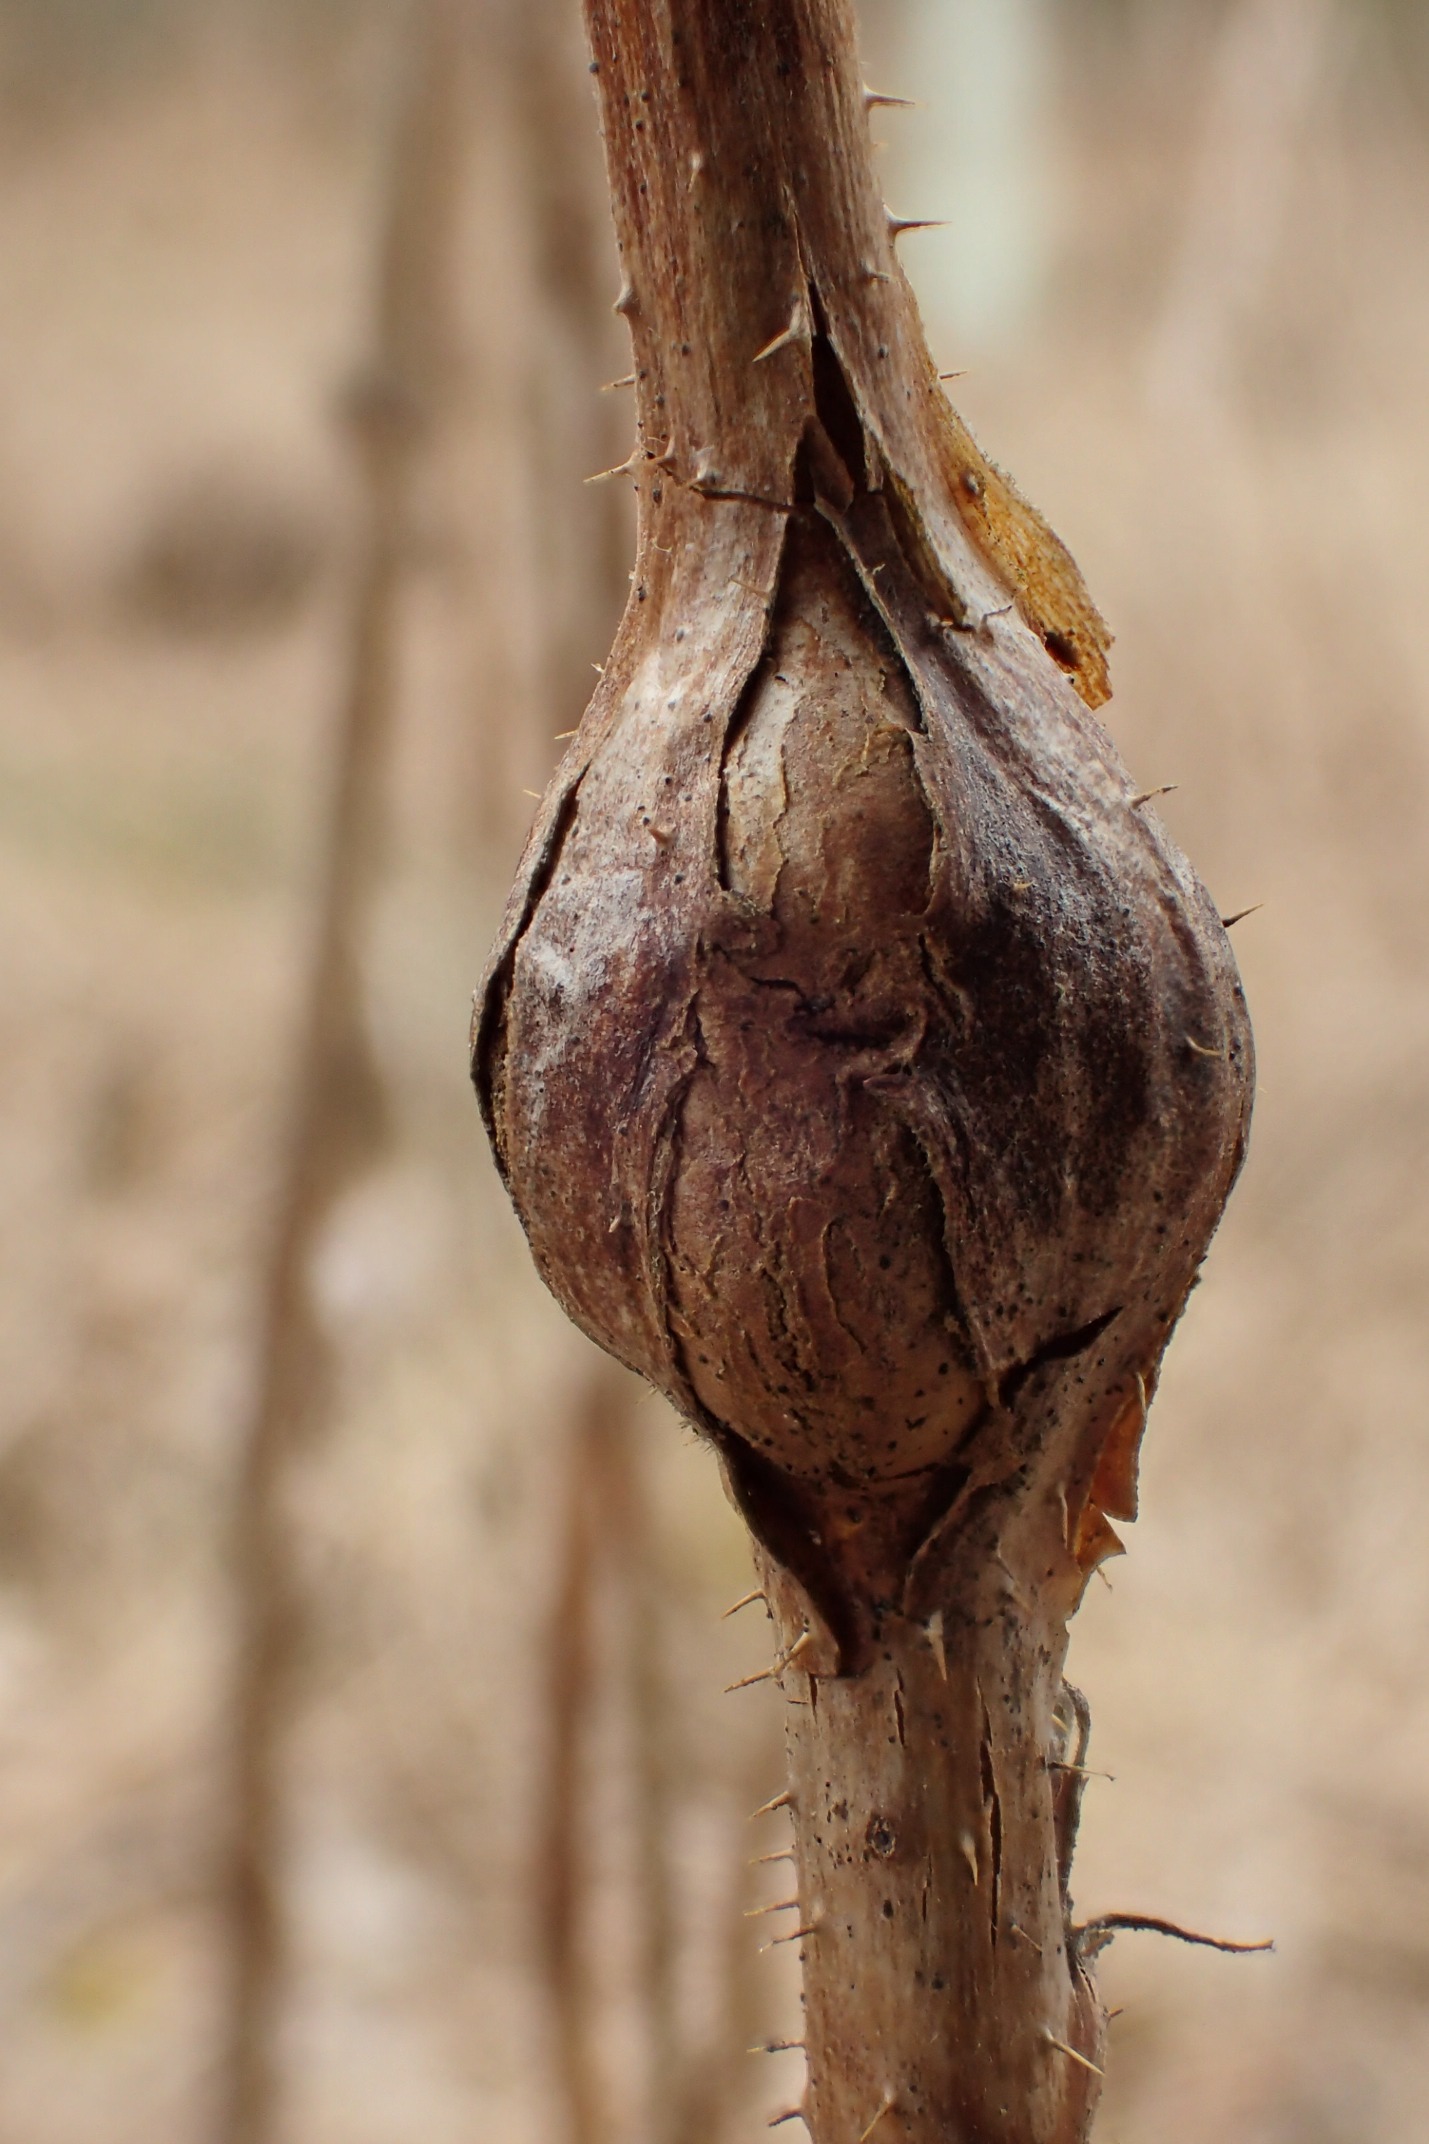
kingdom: Animalia
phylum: Arthropoda
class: Insecta
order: Diptera
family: Cecidomyiidae
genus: Lasioptera
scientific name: Lasioptera rubi
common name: Hindbærstængelgalmyg
